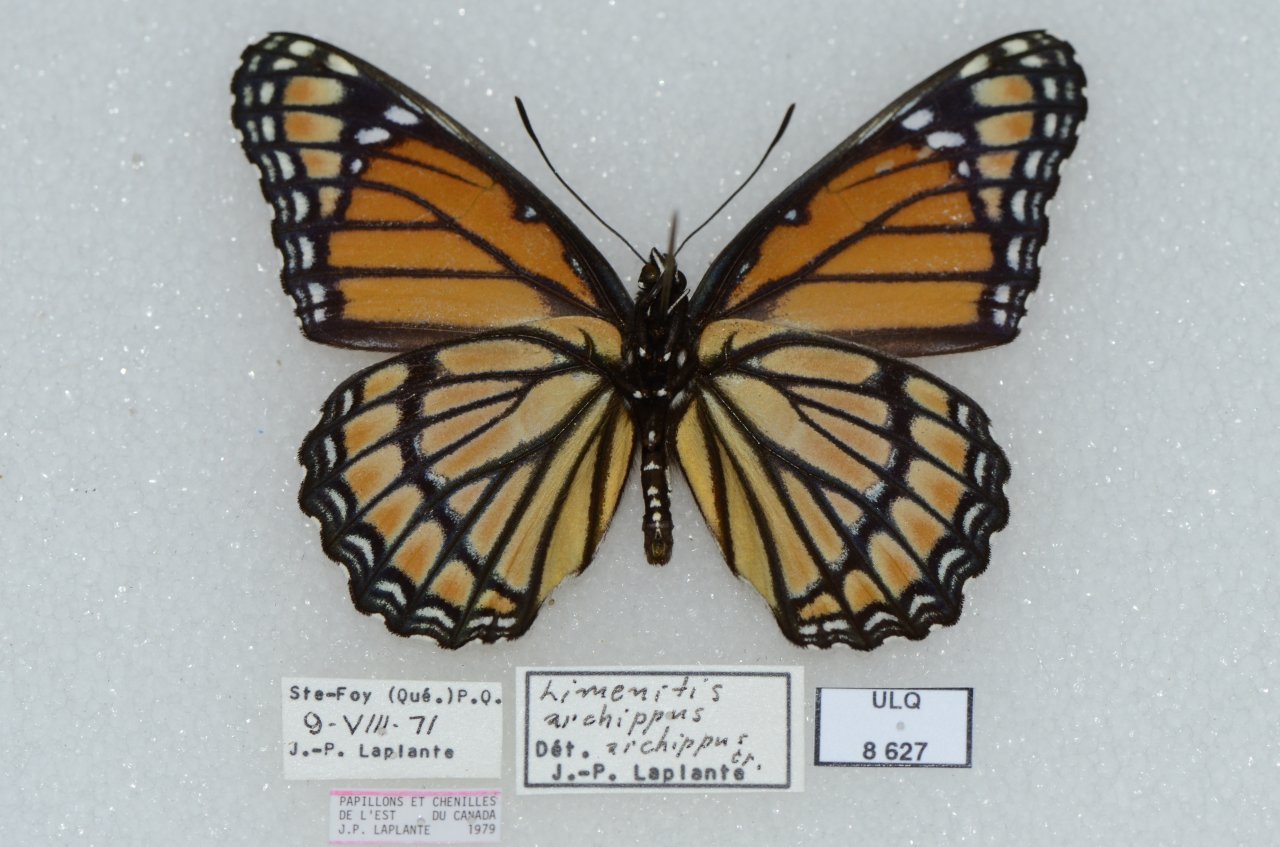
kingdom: Animalia
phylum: Arthropoda
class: Insecta
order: Lepidoptera
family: Nymphalidae
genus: Limenitis
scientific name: Limenitis archippus
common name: Viceroy
